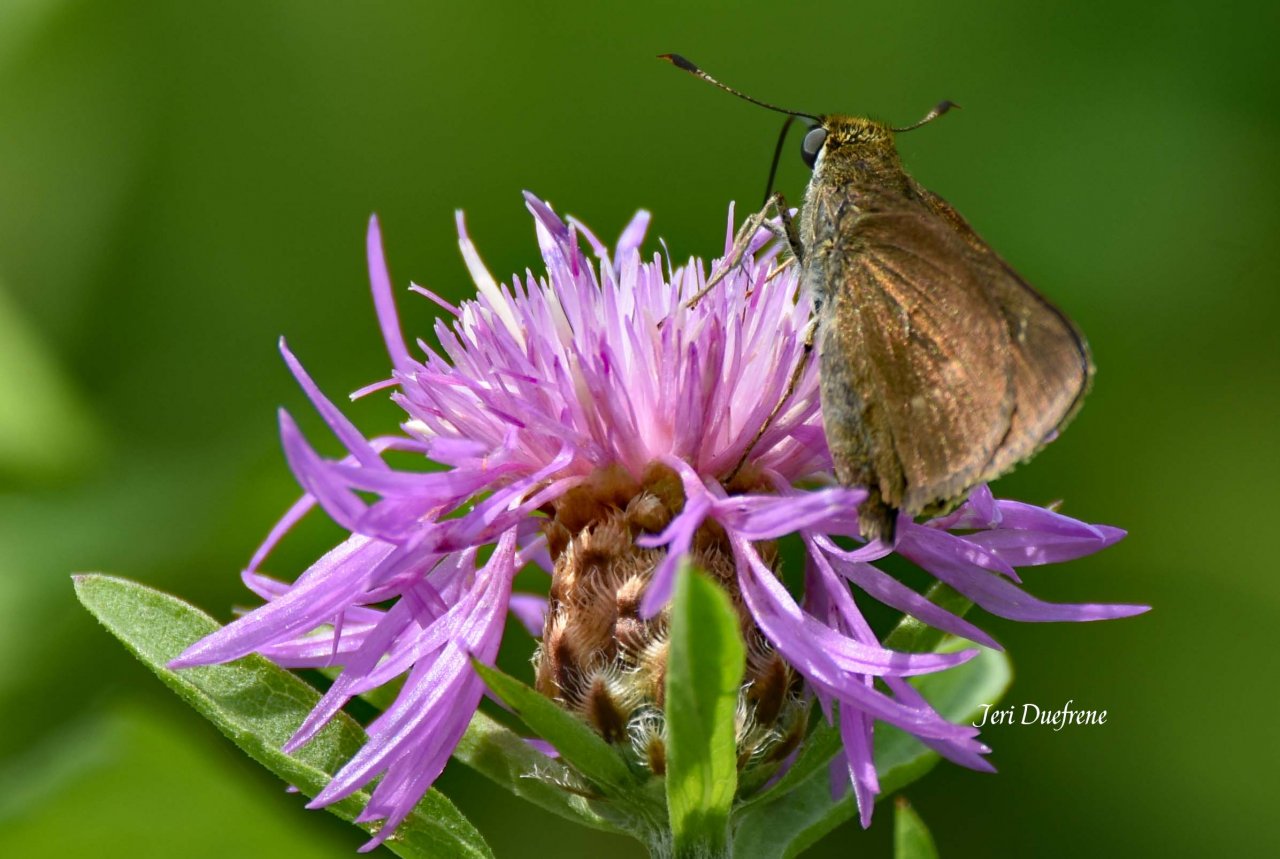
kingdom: Animalia
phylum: Arthropoda
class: Insecta
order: Lepidoptera
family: Hesperiidae
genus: Vernia
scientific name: Vernia verna
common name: Little Glassywing
